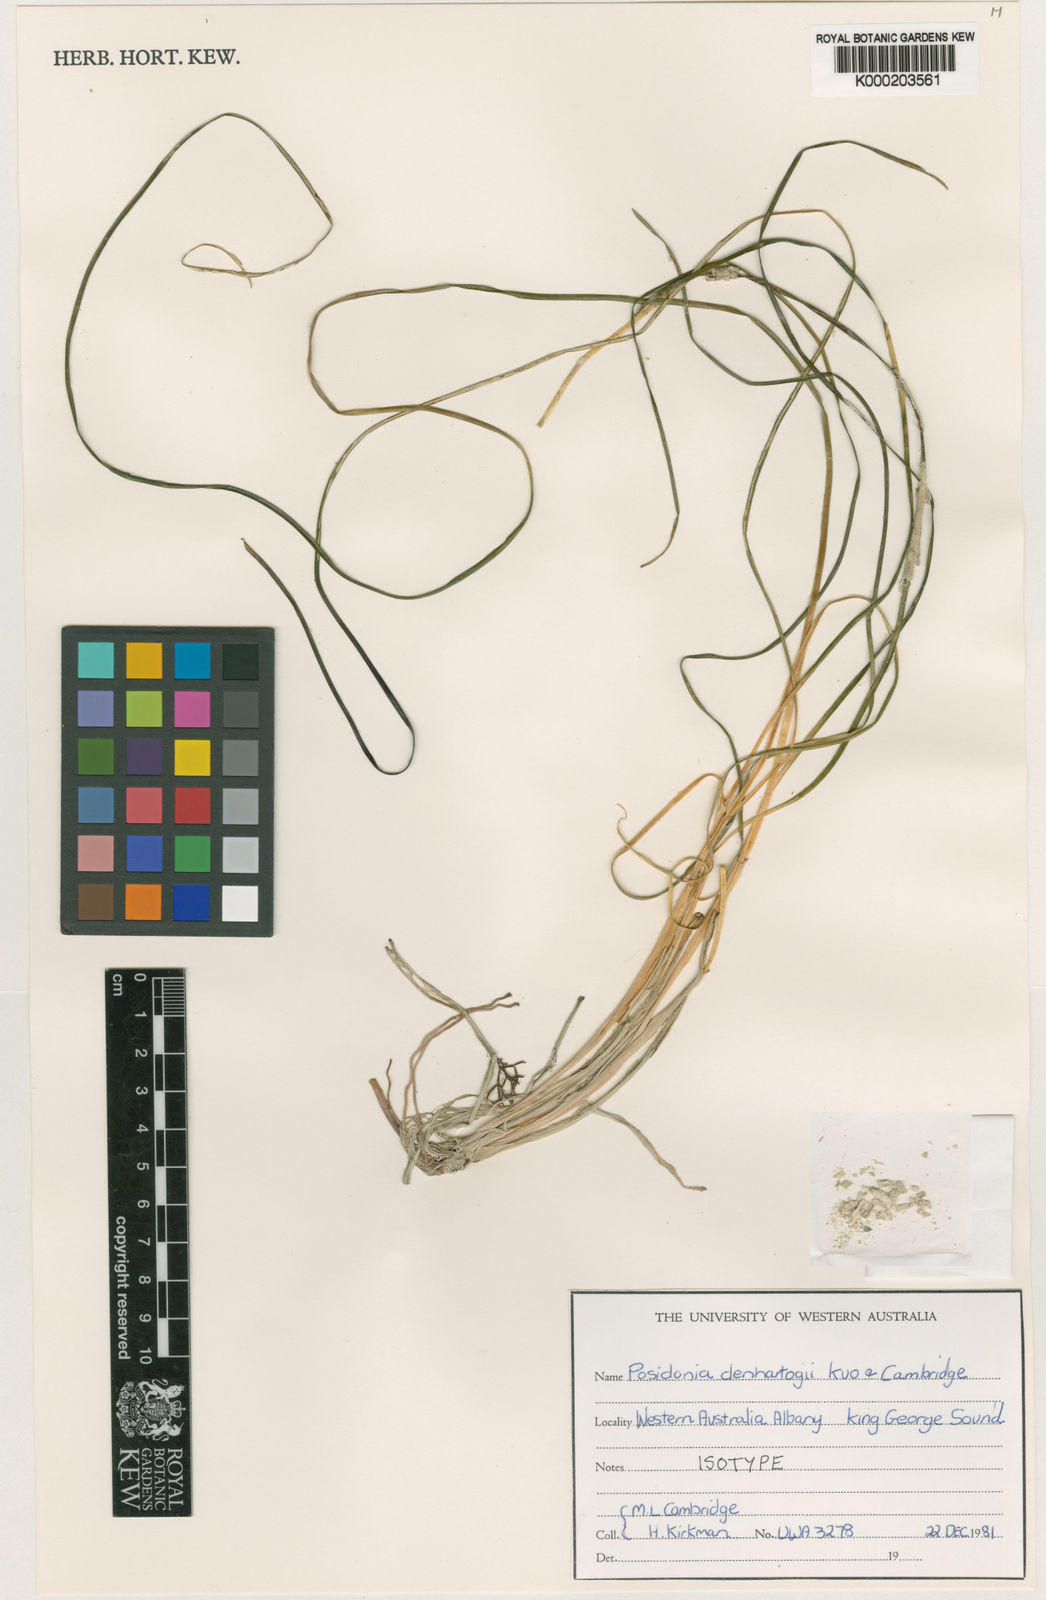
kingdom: Plantae
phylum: Tracheophyta
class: Liliopsida
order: Alismatales
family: Posidoniaceae
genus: Posidonia
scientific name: Posidonia denhartogii
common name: Species code: pd
